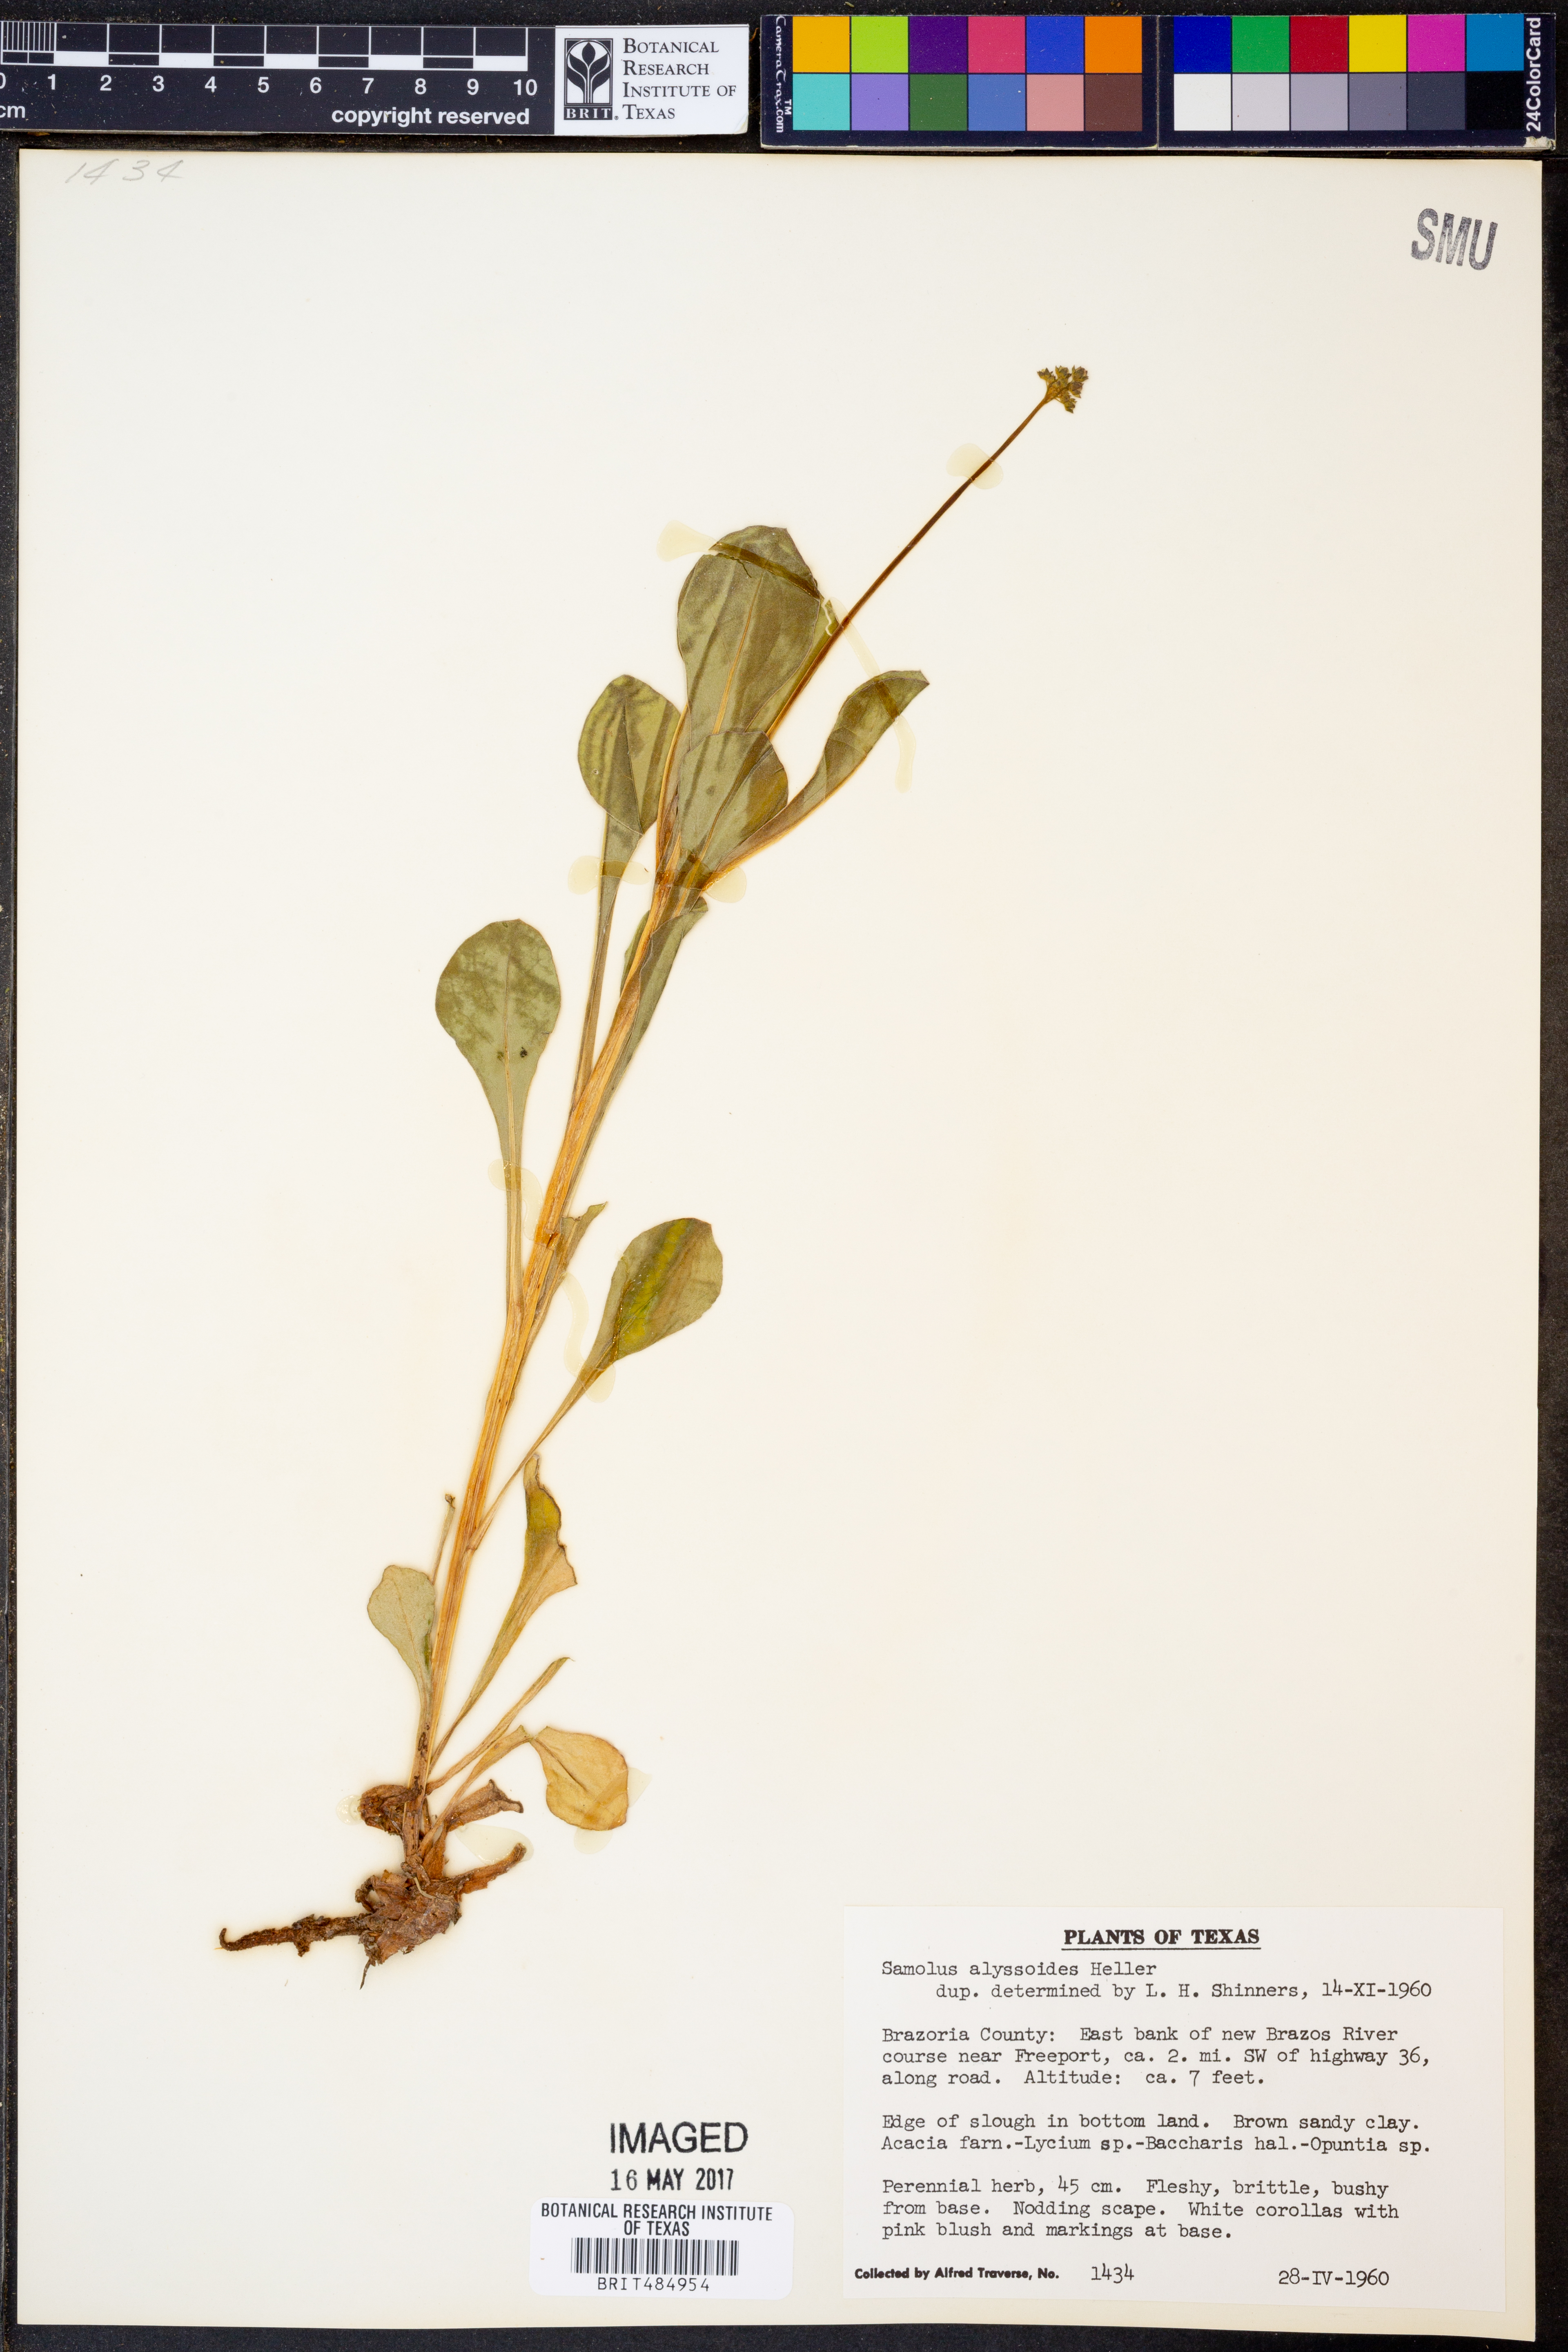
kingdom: Plantae
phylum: Tracheophyta
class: Magnoliopsida
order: Ericales
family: Primulaceae
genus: Samolus
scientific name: Samolus ebracteatus
